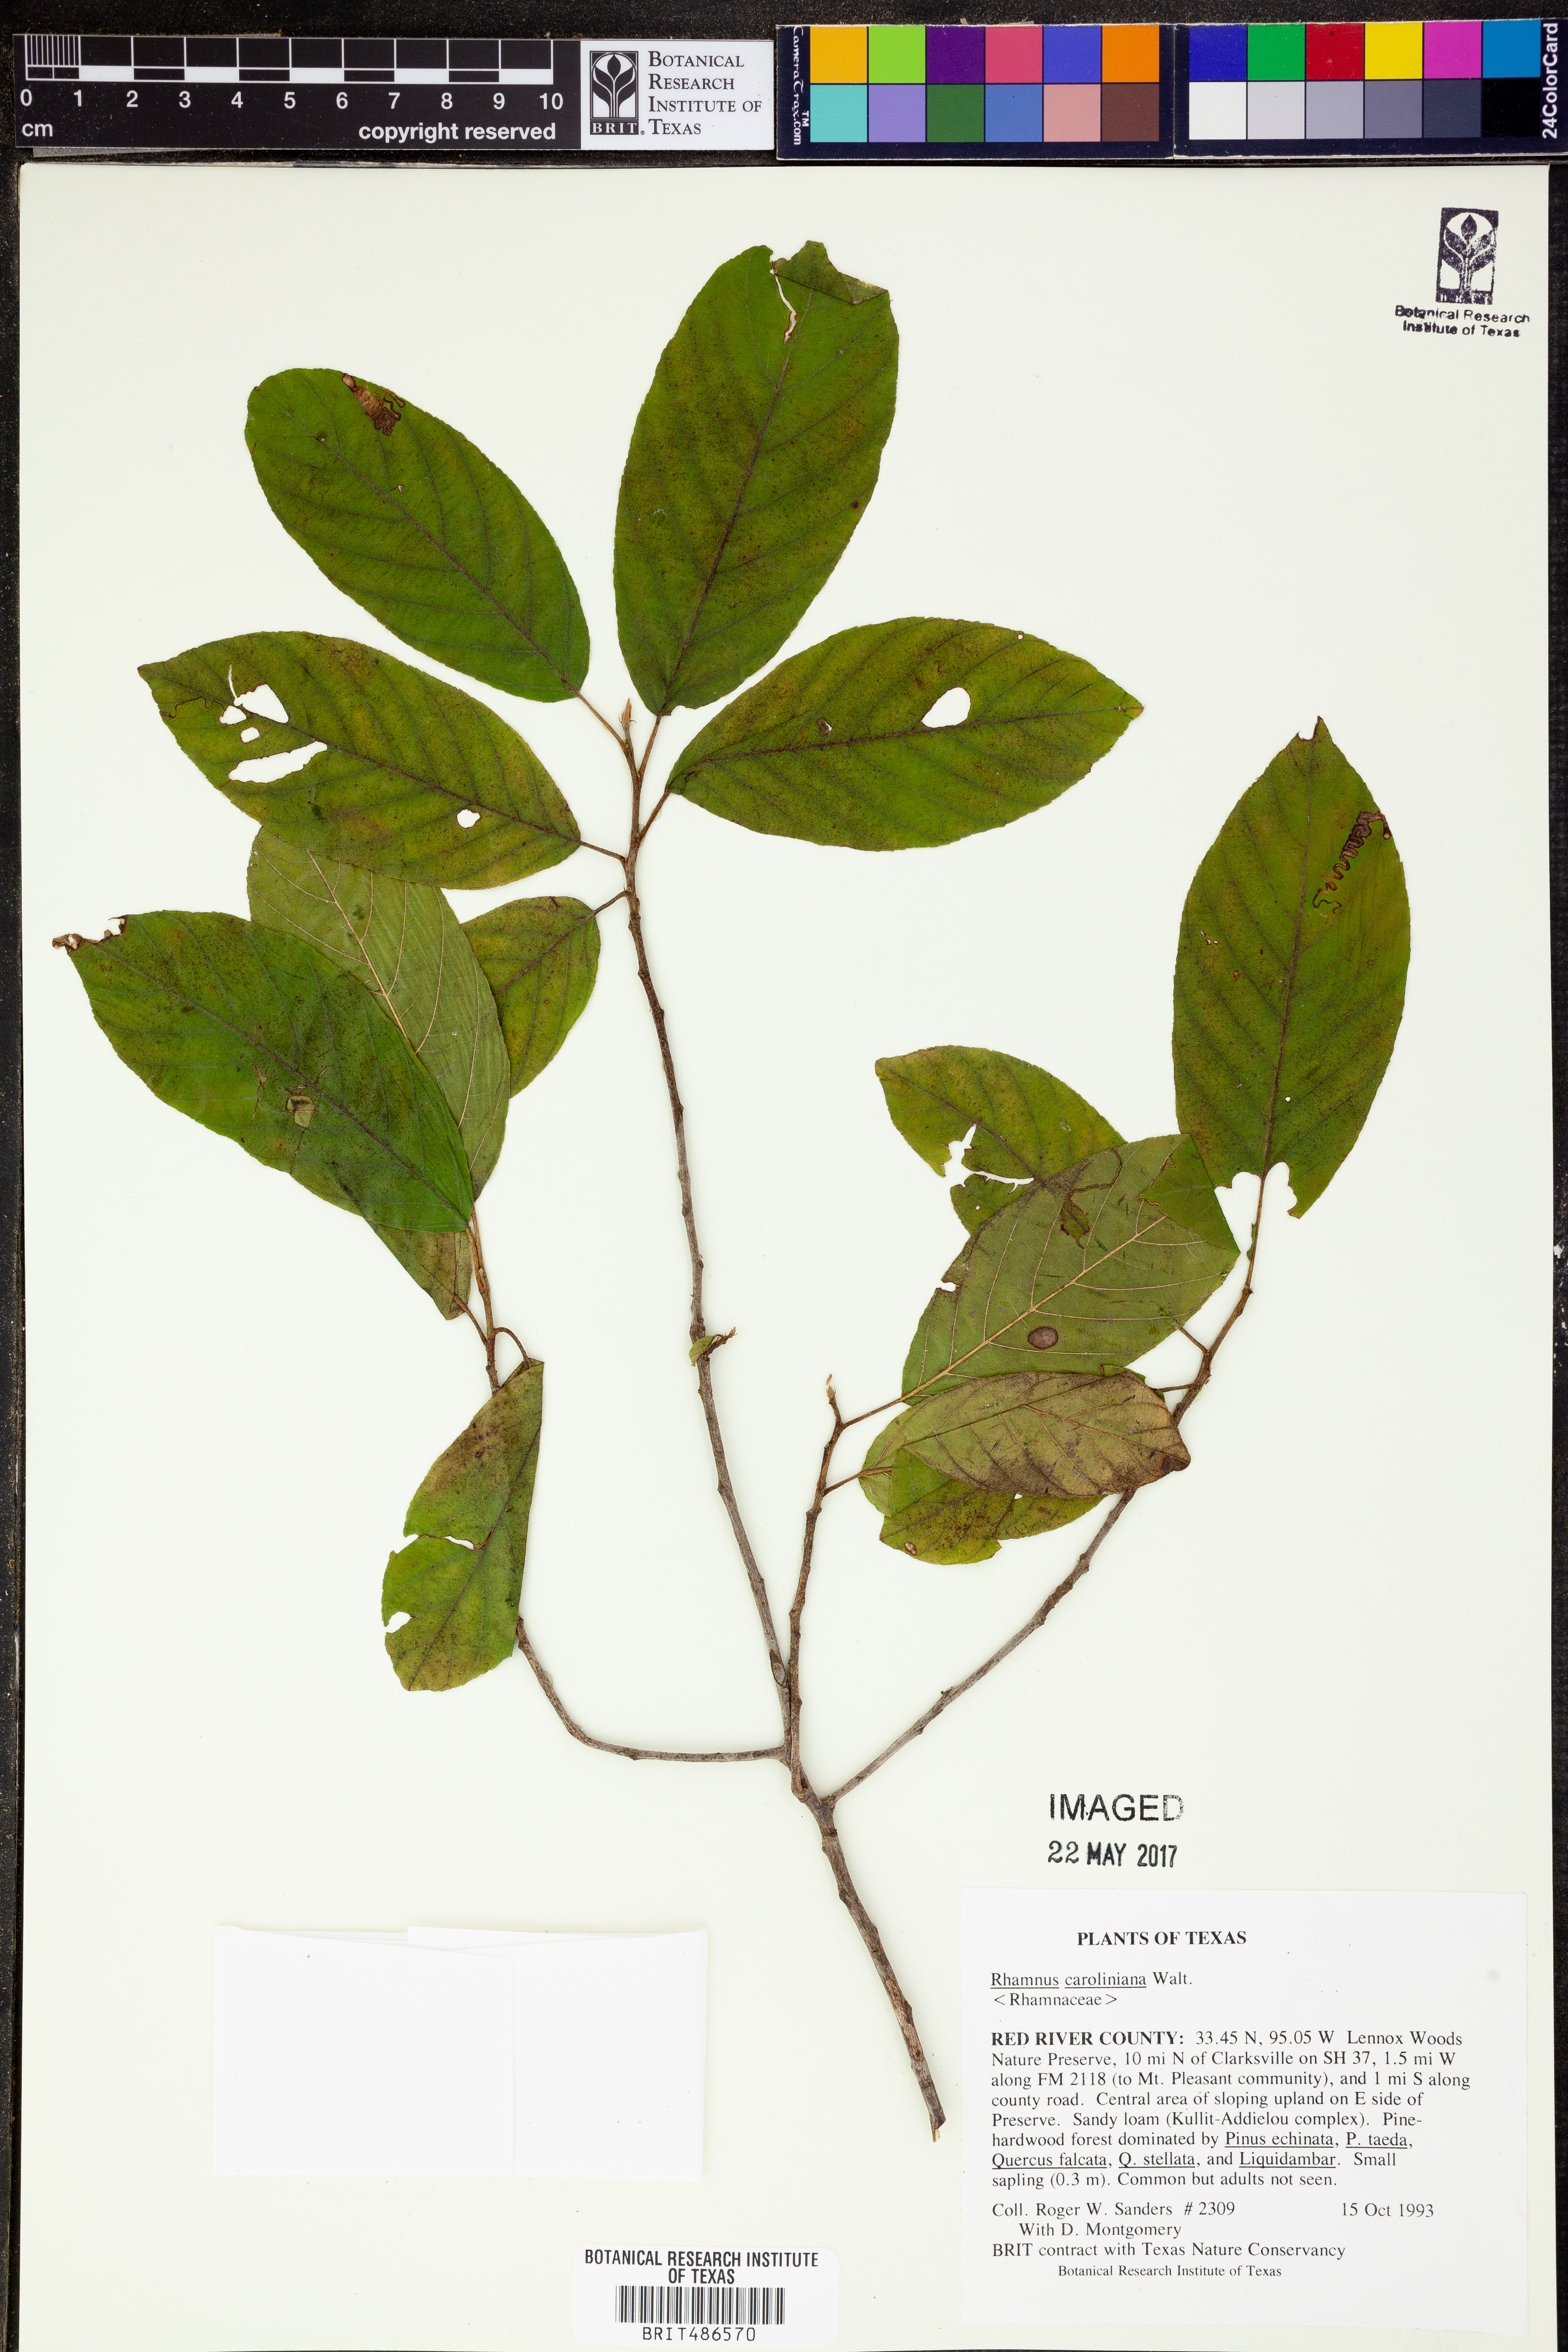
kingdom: Plantae
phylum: Tracheophyta
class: Magnoliopsida
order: Rosales
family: Rhamnaceae
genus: Frangula
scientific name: Frangula caroliniana
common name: Carolina buckthorn
